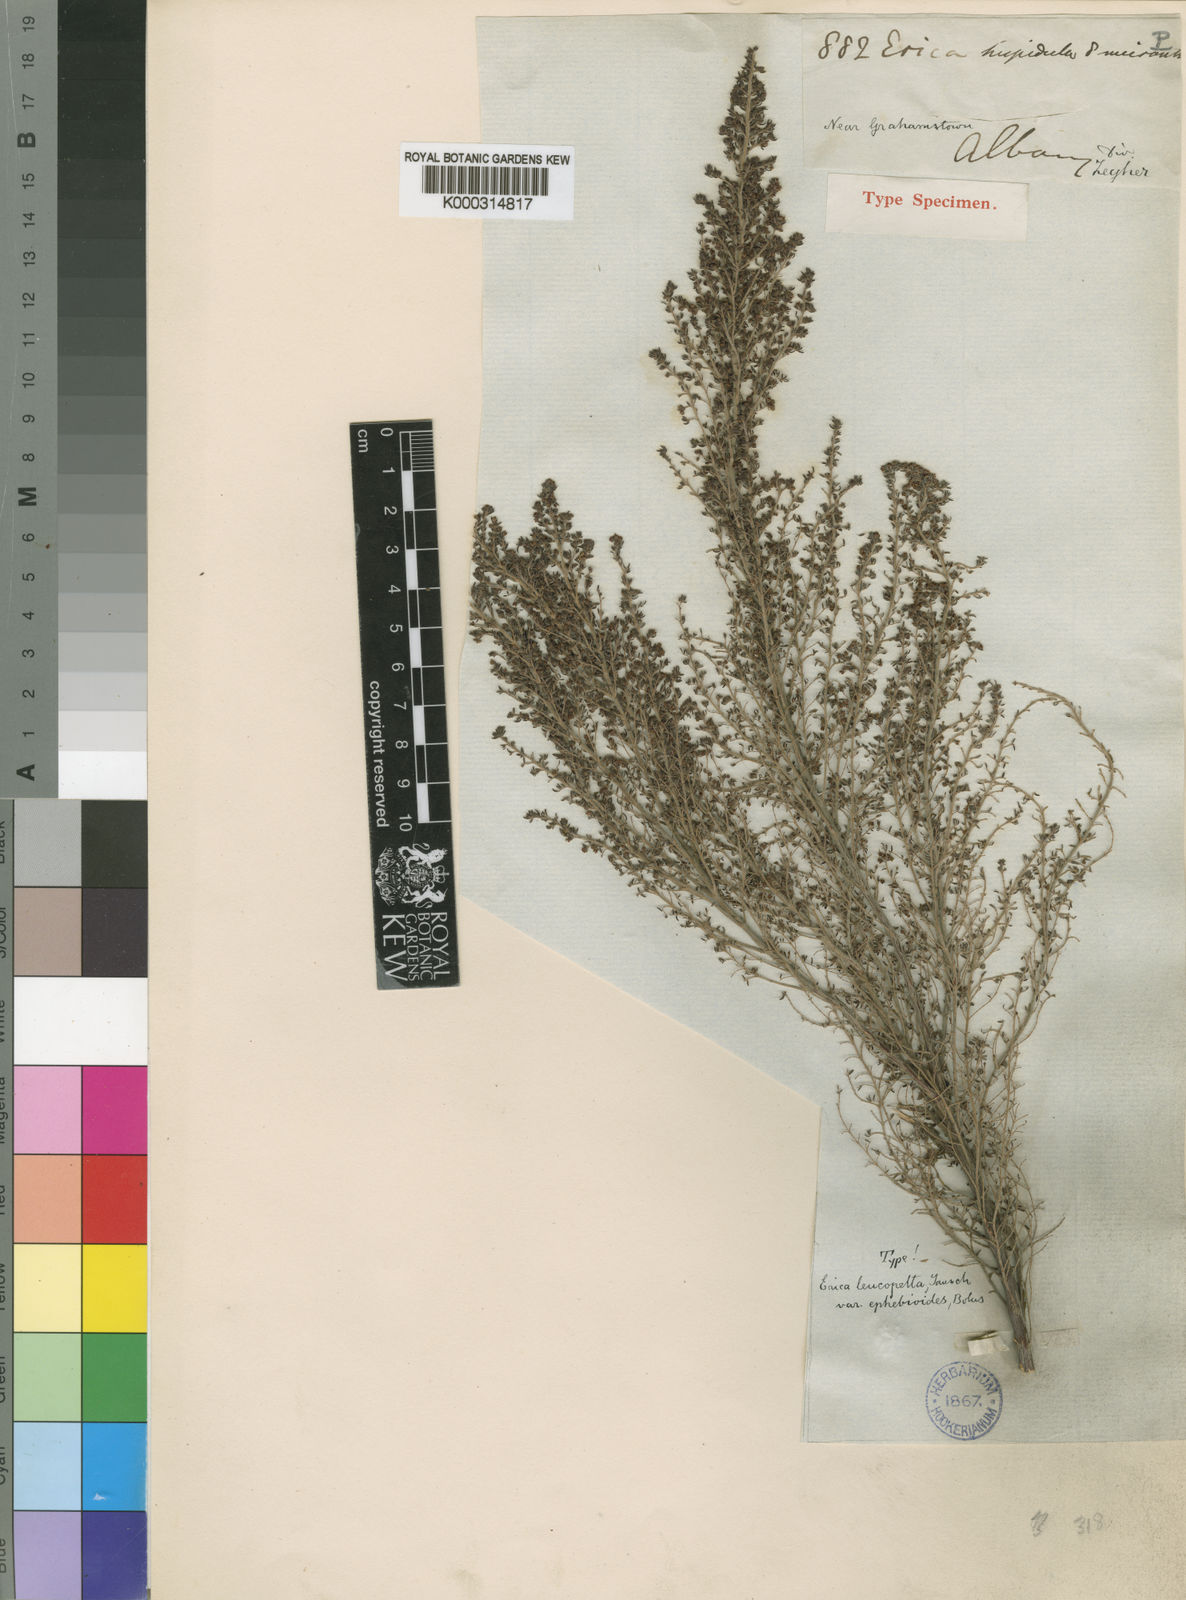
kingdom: Plantae
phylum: Tracheophyta
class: Magnoliopsida
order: Ericales
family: Ericaceae
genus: Erica
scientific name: Erica leucopelta
